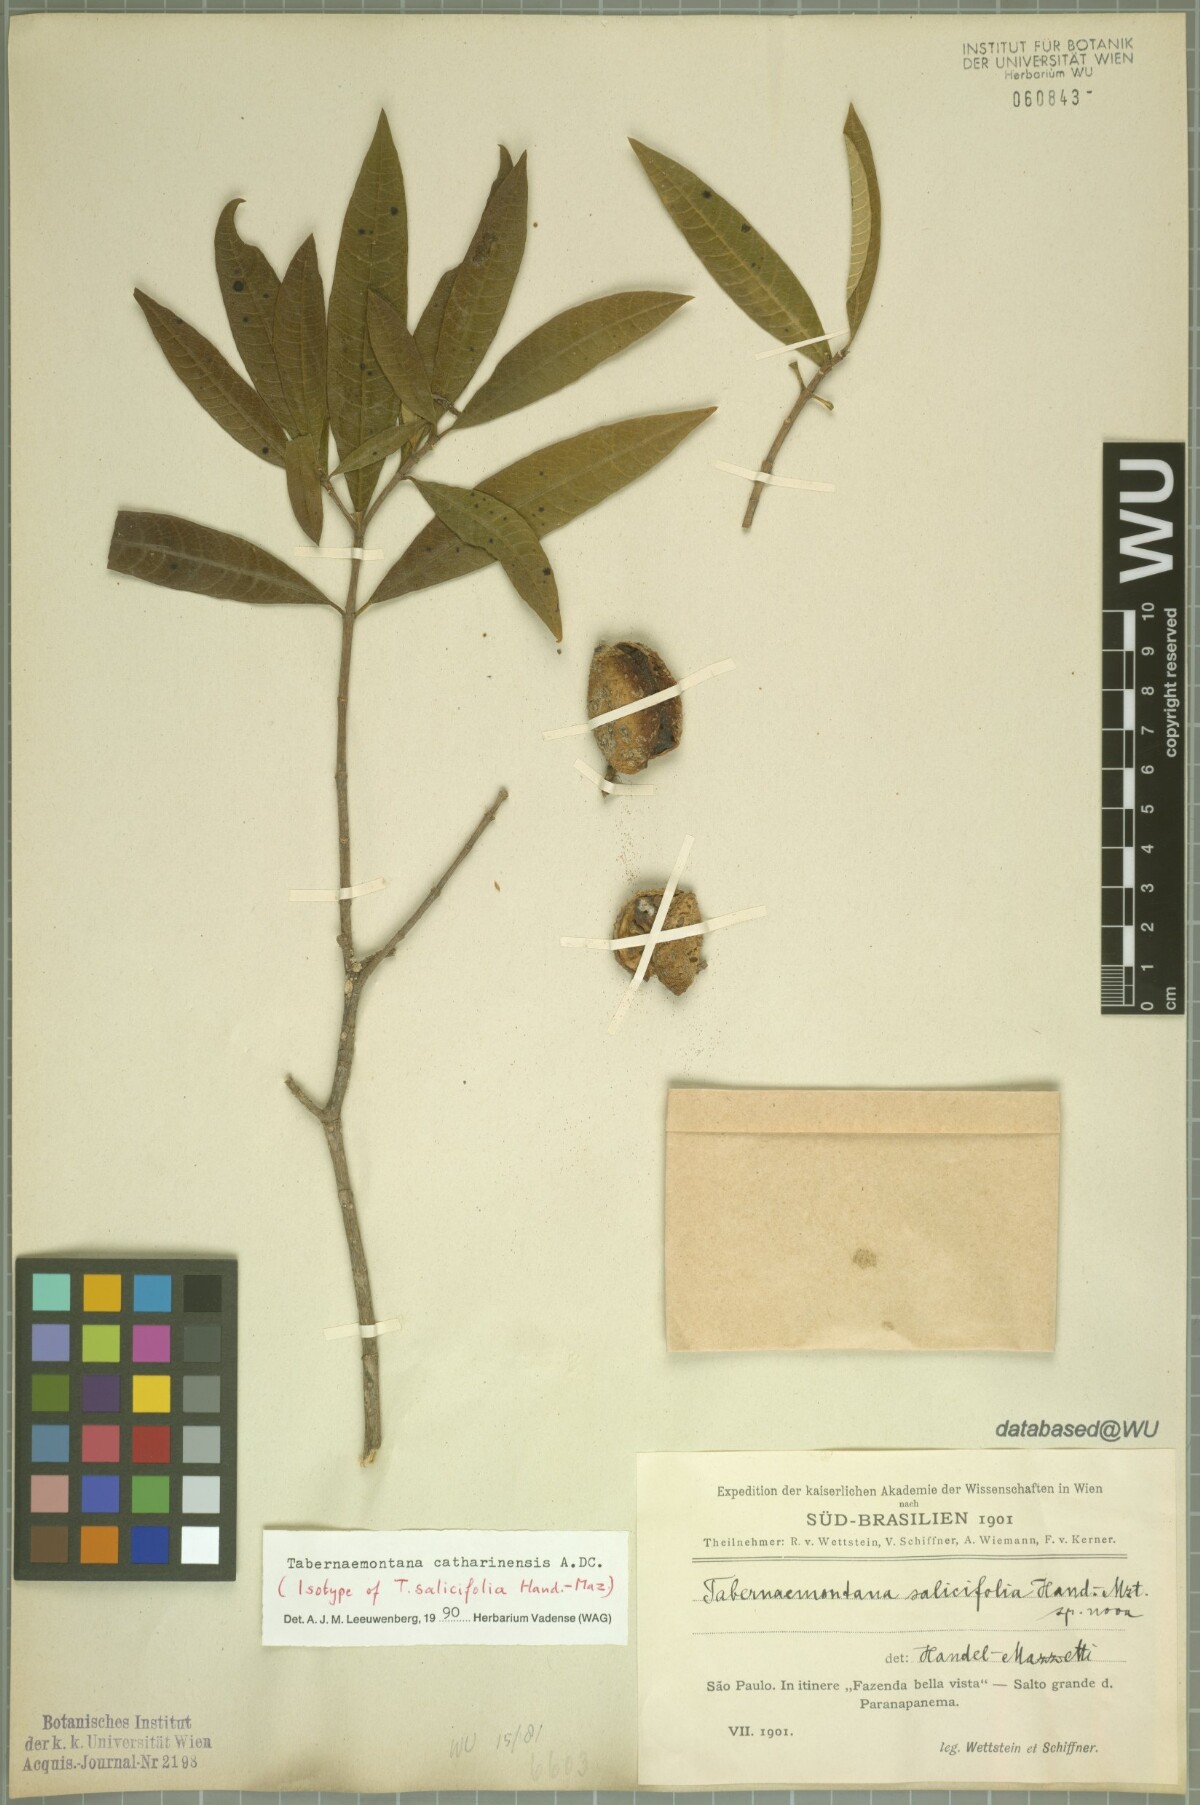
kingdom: Plantae
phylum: Tracheophyta
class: Magnoliopsida
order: Gentianales
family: Apocynaceae
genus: Tabernaemontana
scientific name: Tabernaemontana catharinensis
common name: Pinwheel-flower
